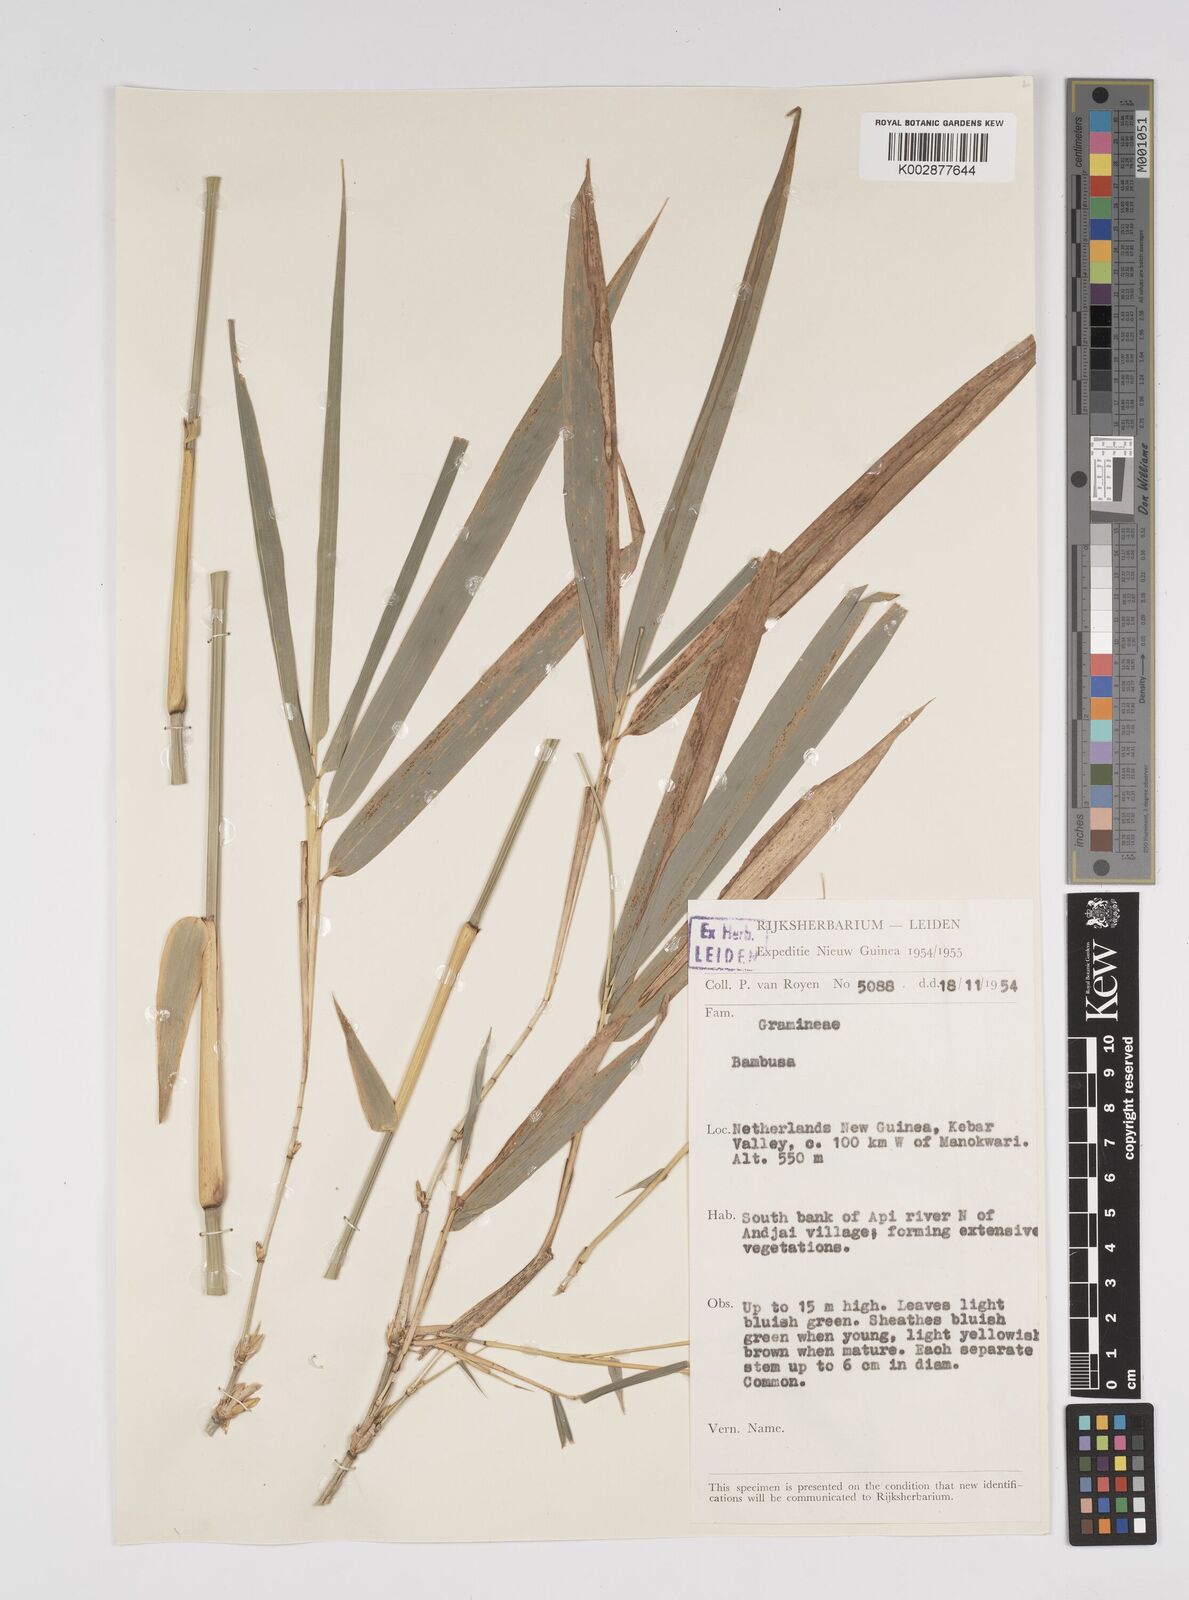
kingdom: Plantae
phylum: Tracheophyta
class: Liliopsida
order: Poales
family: Poaceae
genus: Bambusa
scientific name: Bambusa
